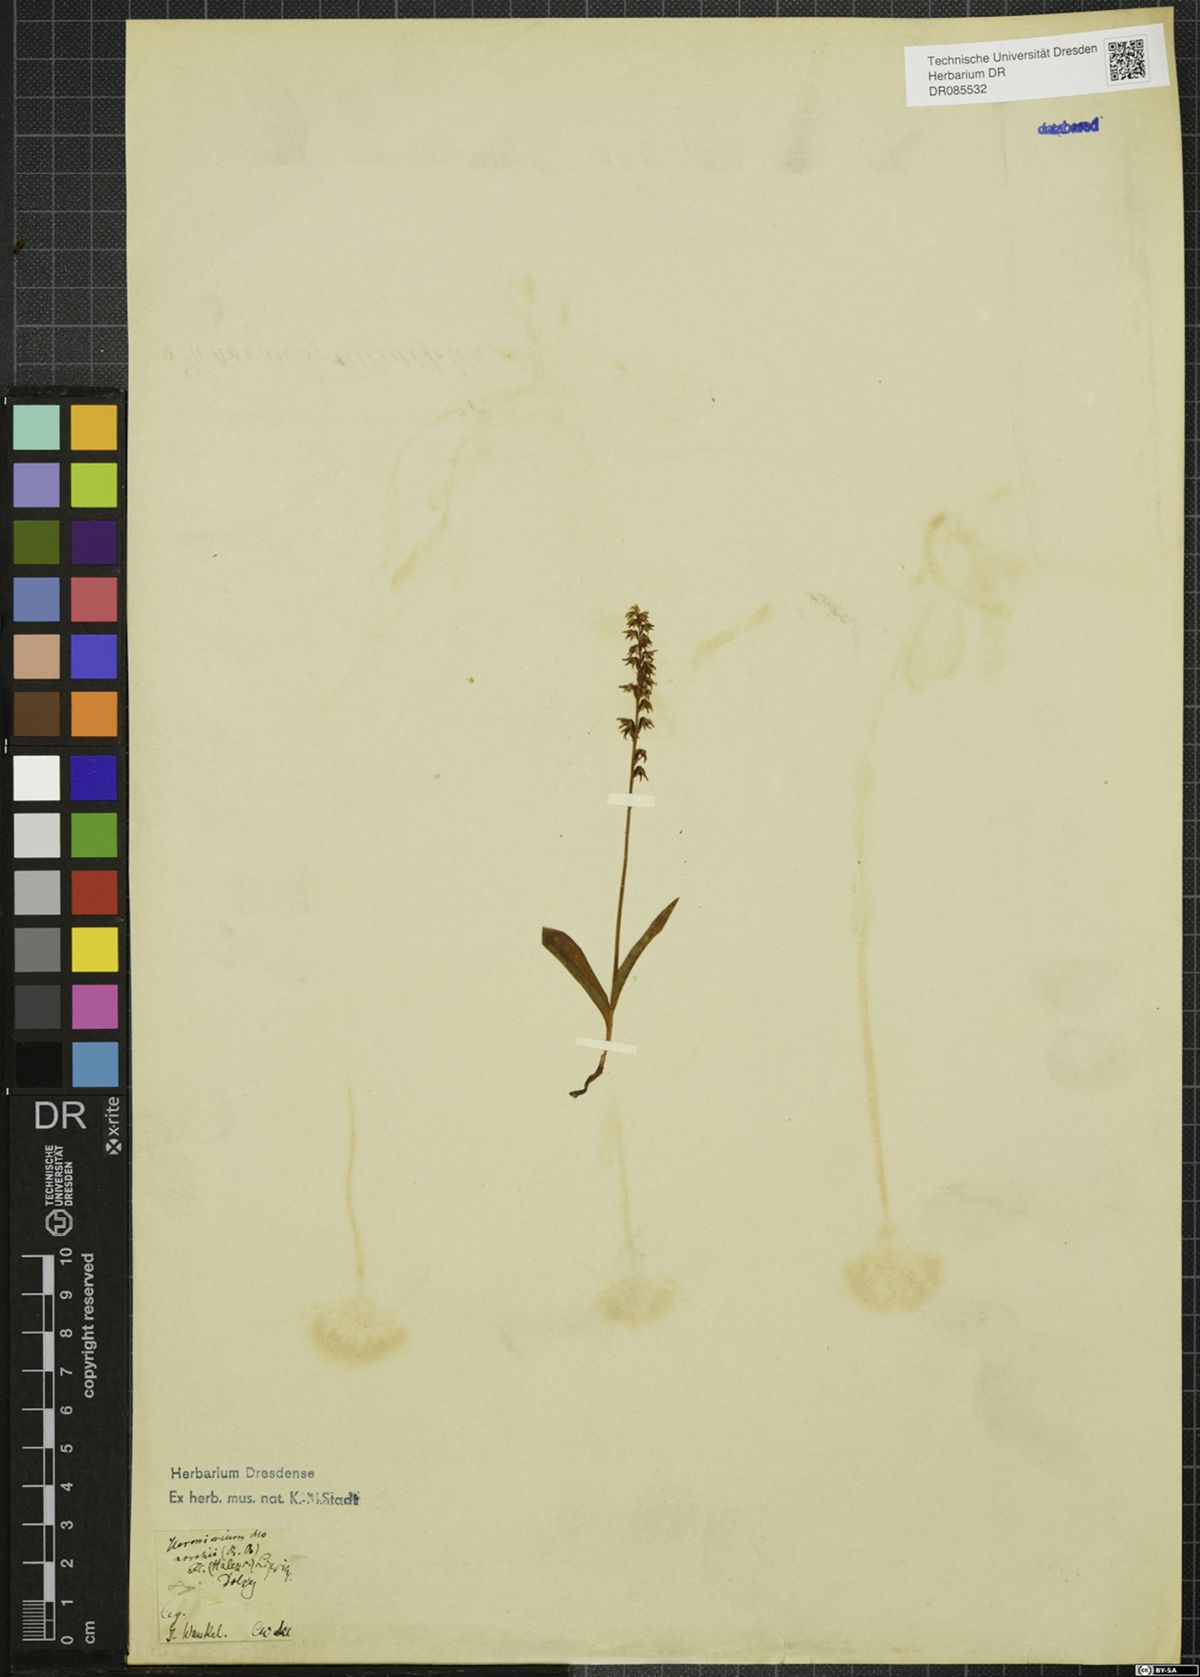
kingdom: Plantae
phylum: Tracheophyta
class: Liliopsida
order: Asparagales
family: Orchidaceae
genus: Herminium
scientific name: Herminium monorchis
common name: Musk orchid
